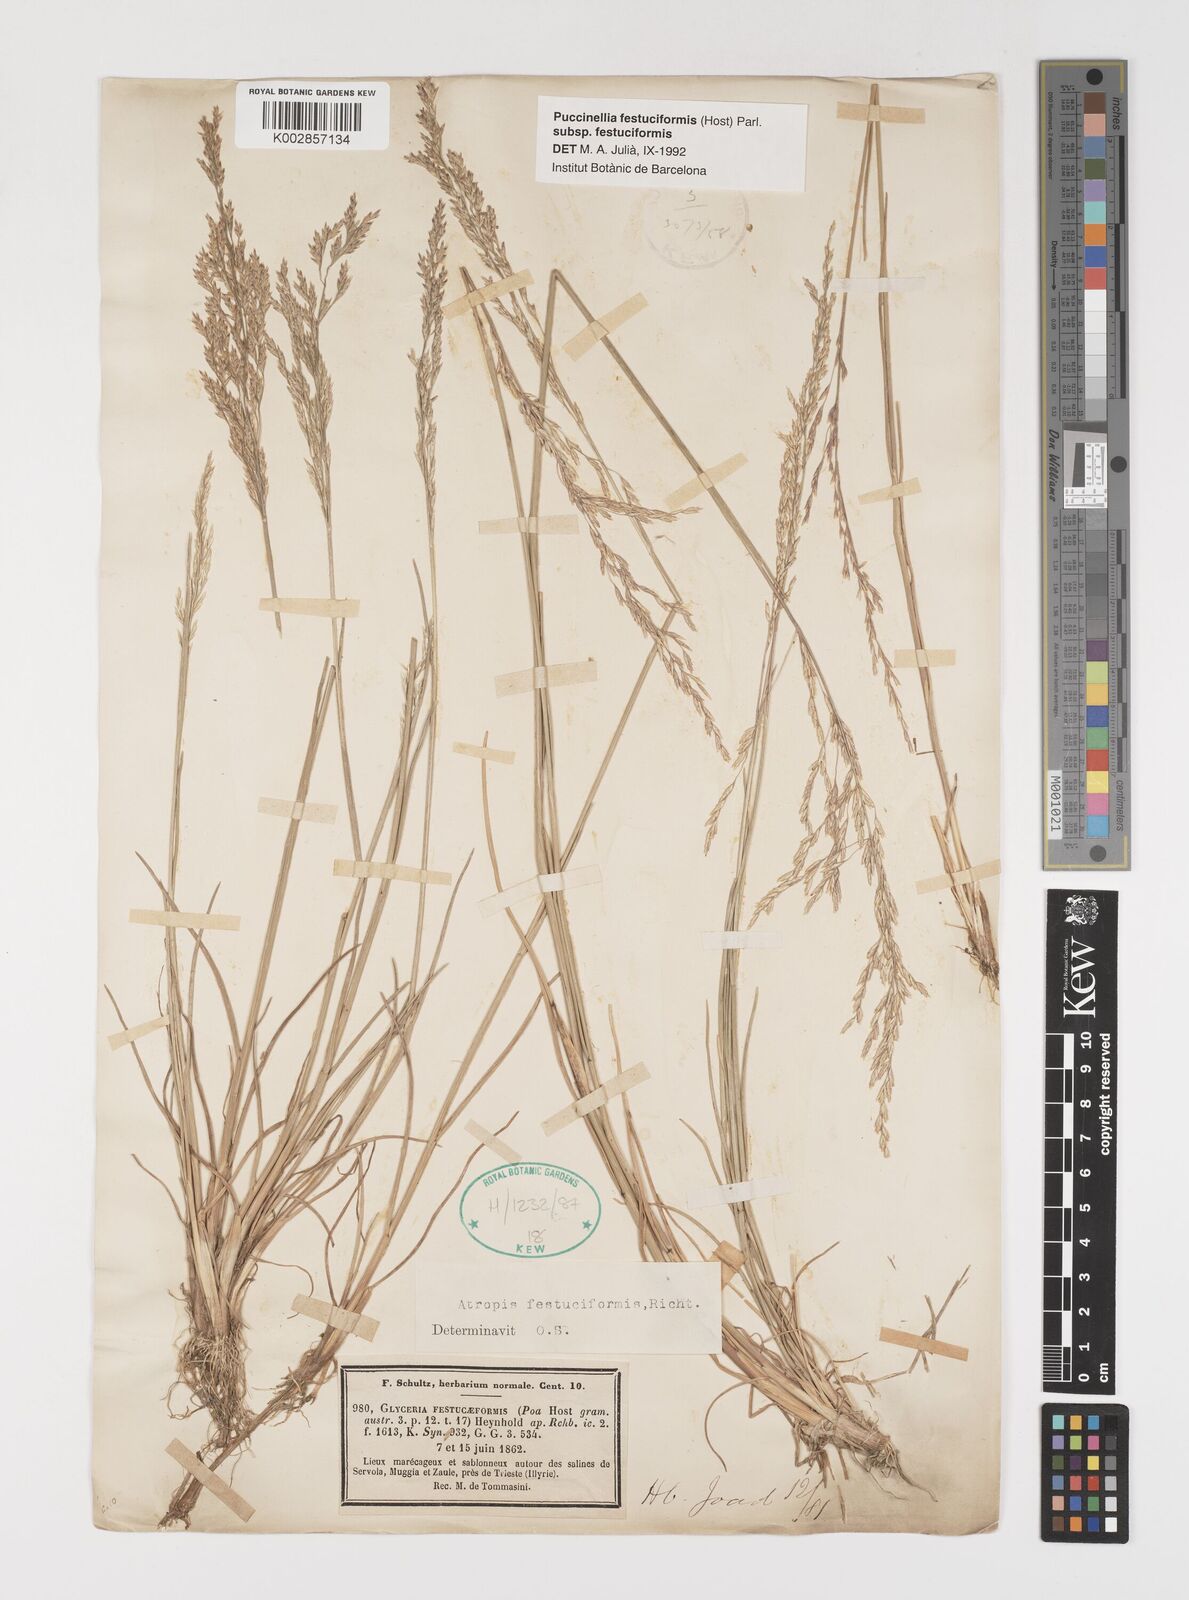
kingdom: Plantae
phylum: Tracheophyta
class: Liliopsida
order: Poales
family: Poaceae
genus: Puccinellia
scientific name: Puccinellia festuciformis
